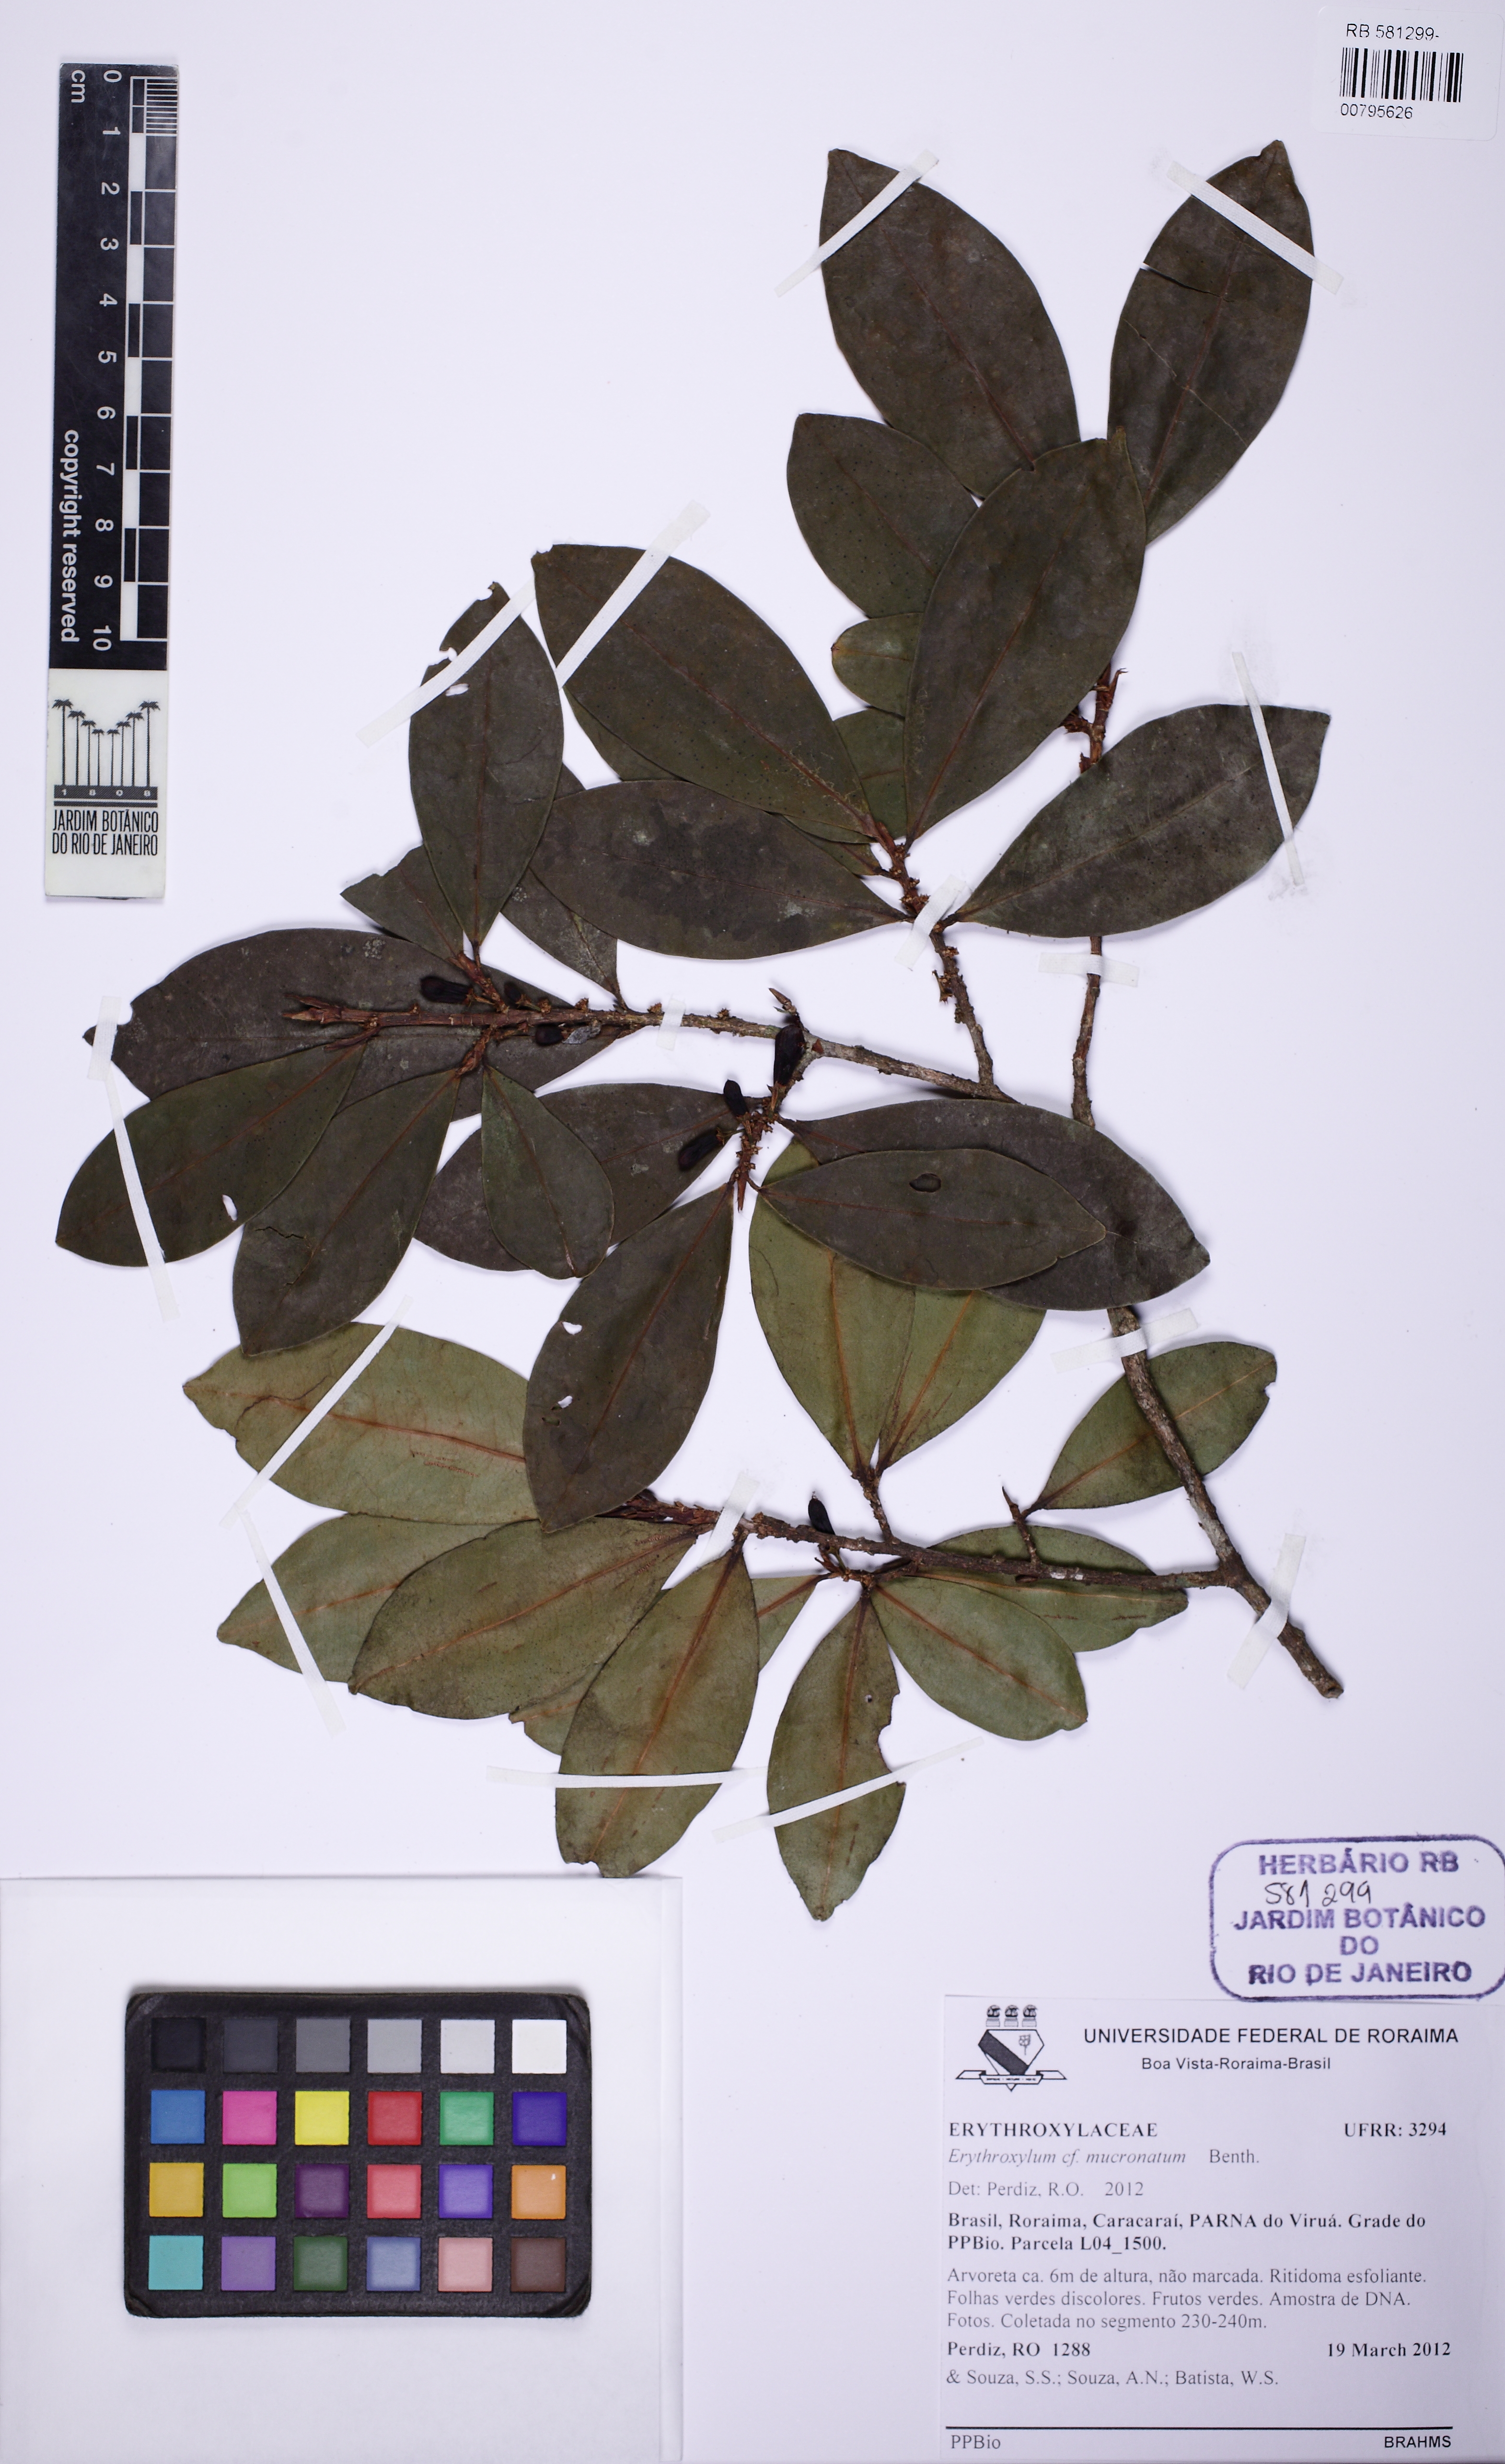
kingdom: Plantae
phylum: Tracheophyta
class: Magnoliopsida
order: Malpighiales
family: Erythroxylaceae
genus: Erythroxylum
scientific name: Erythroxylum mucronatum
